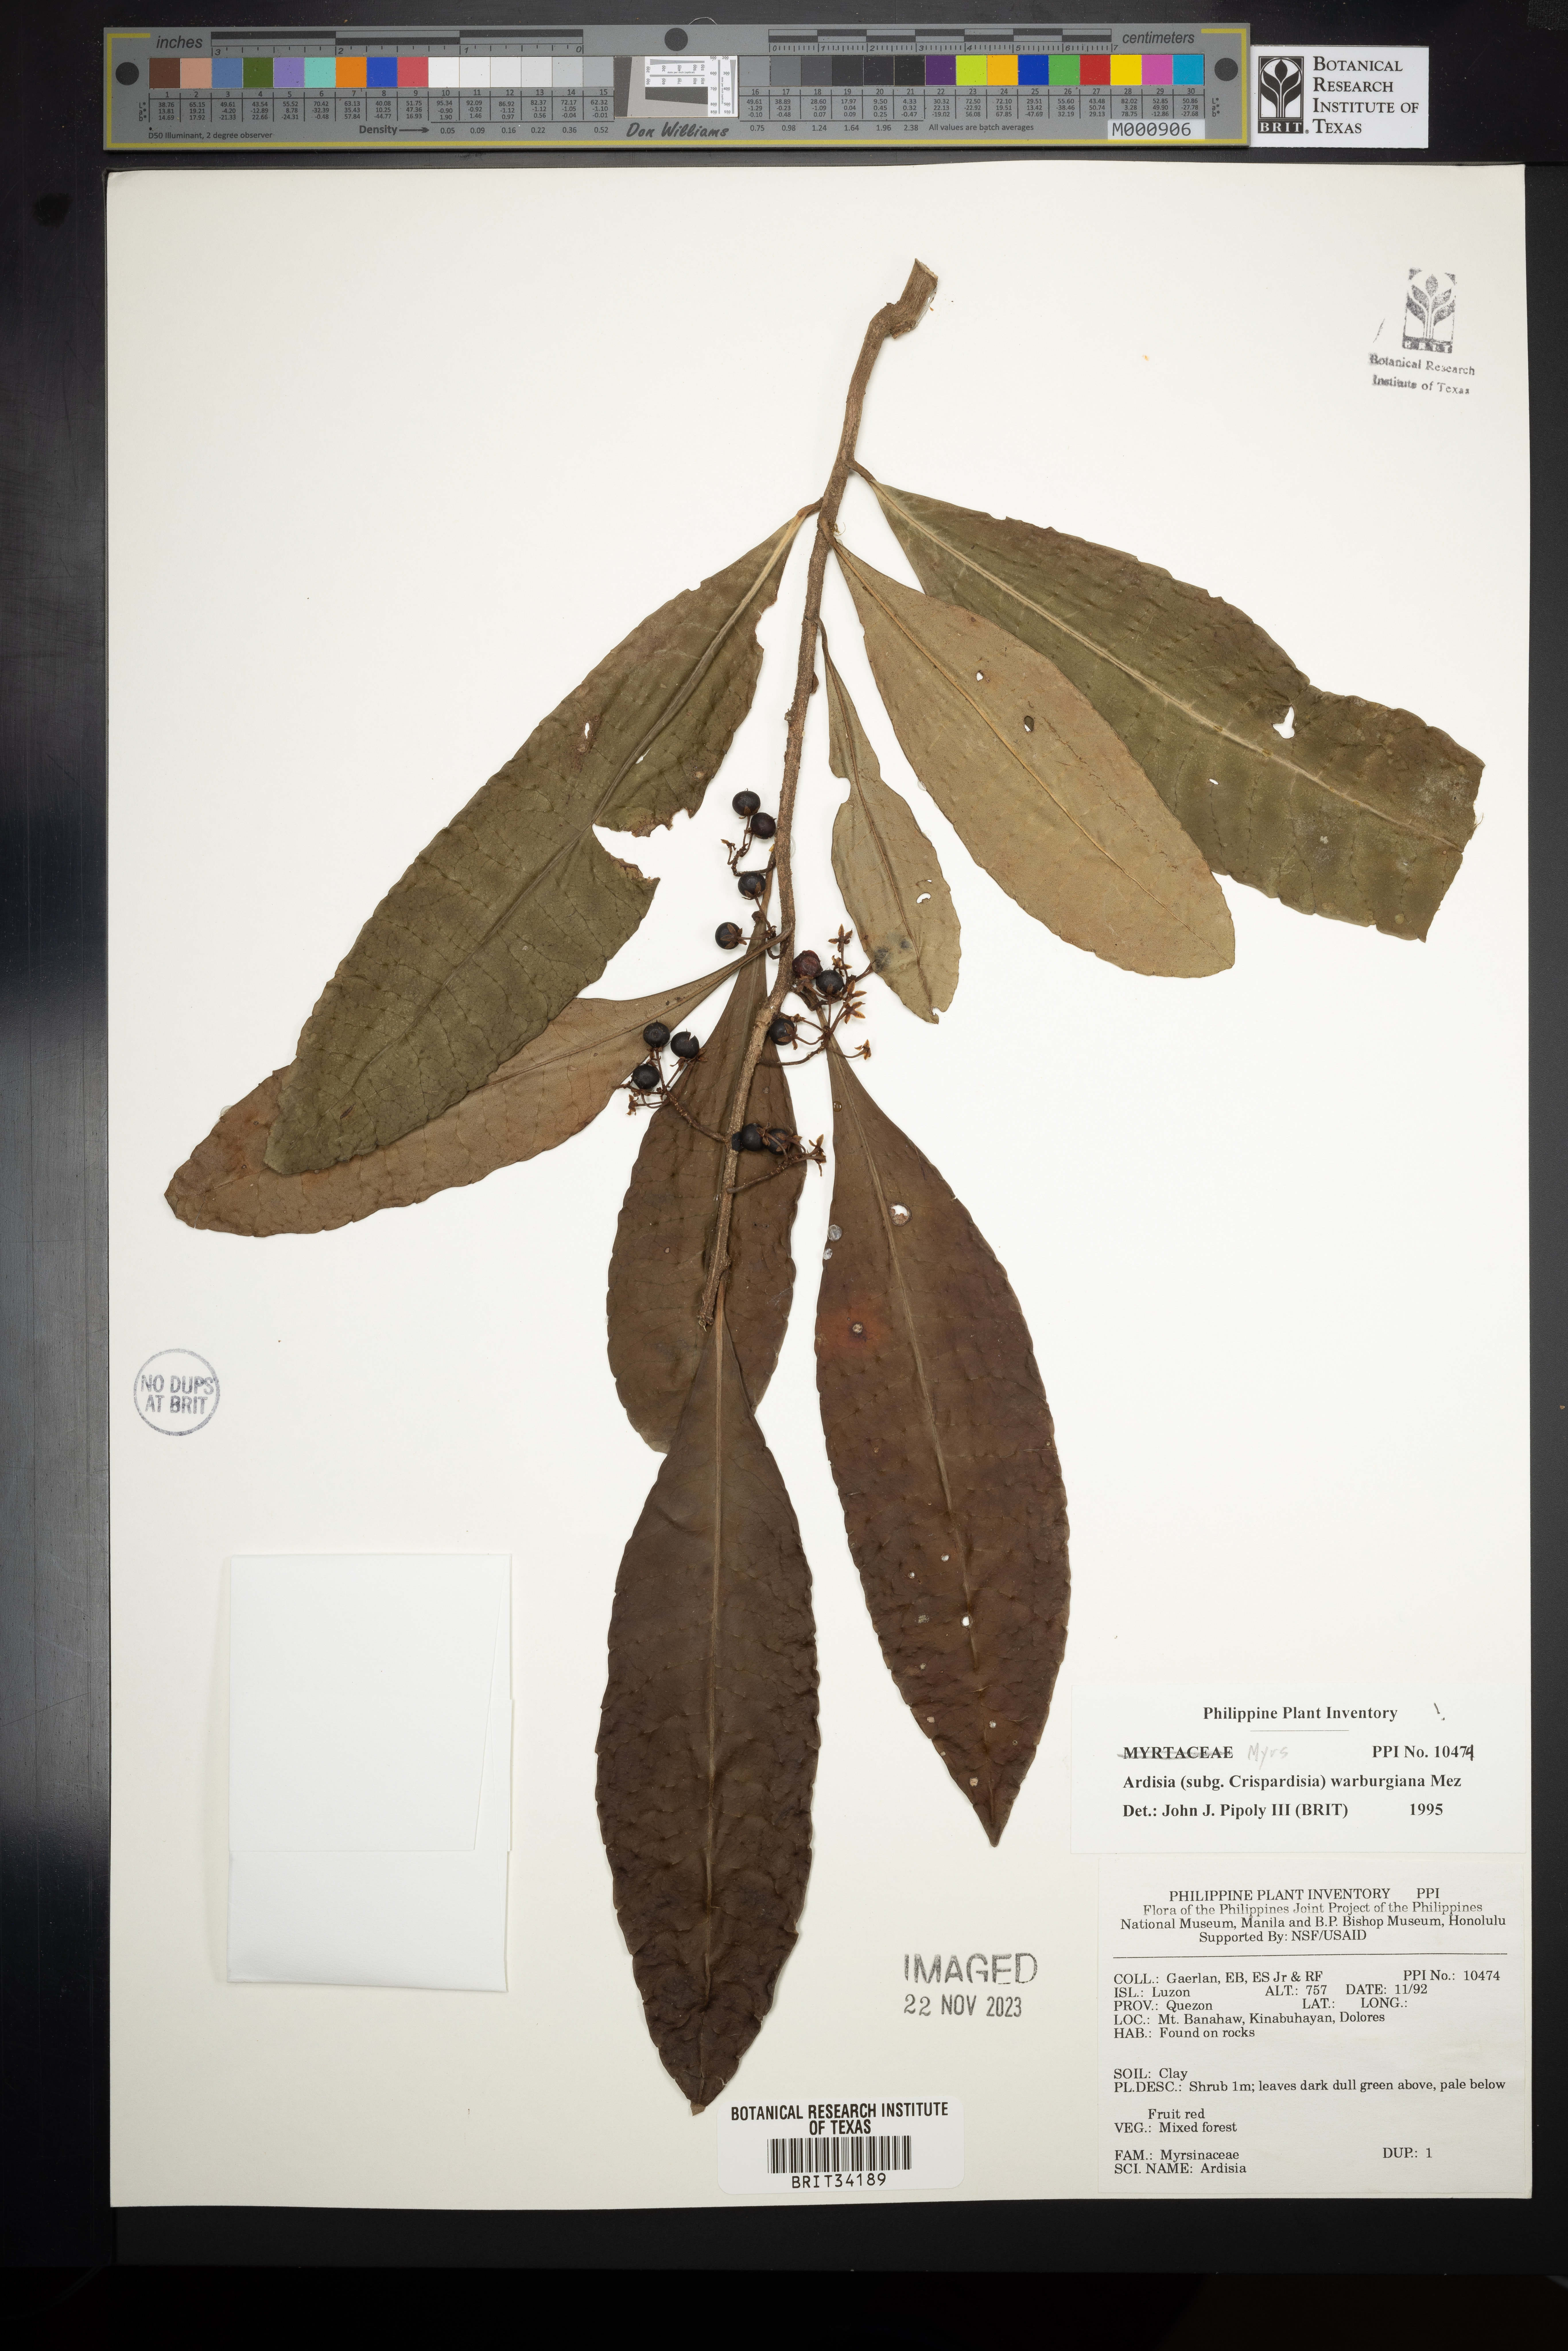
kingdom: Plantae
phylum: Tracheophyta
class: Magnoliopsida
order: Ericales
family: Primulaceae
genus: Ardisia
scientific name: Ardisia warburgiana
